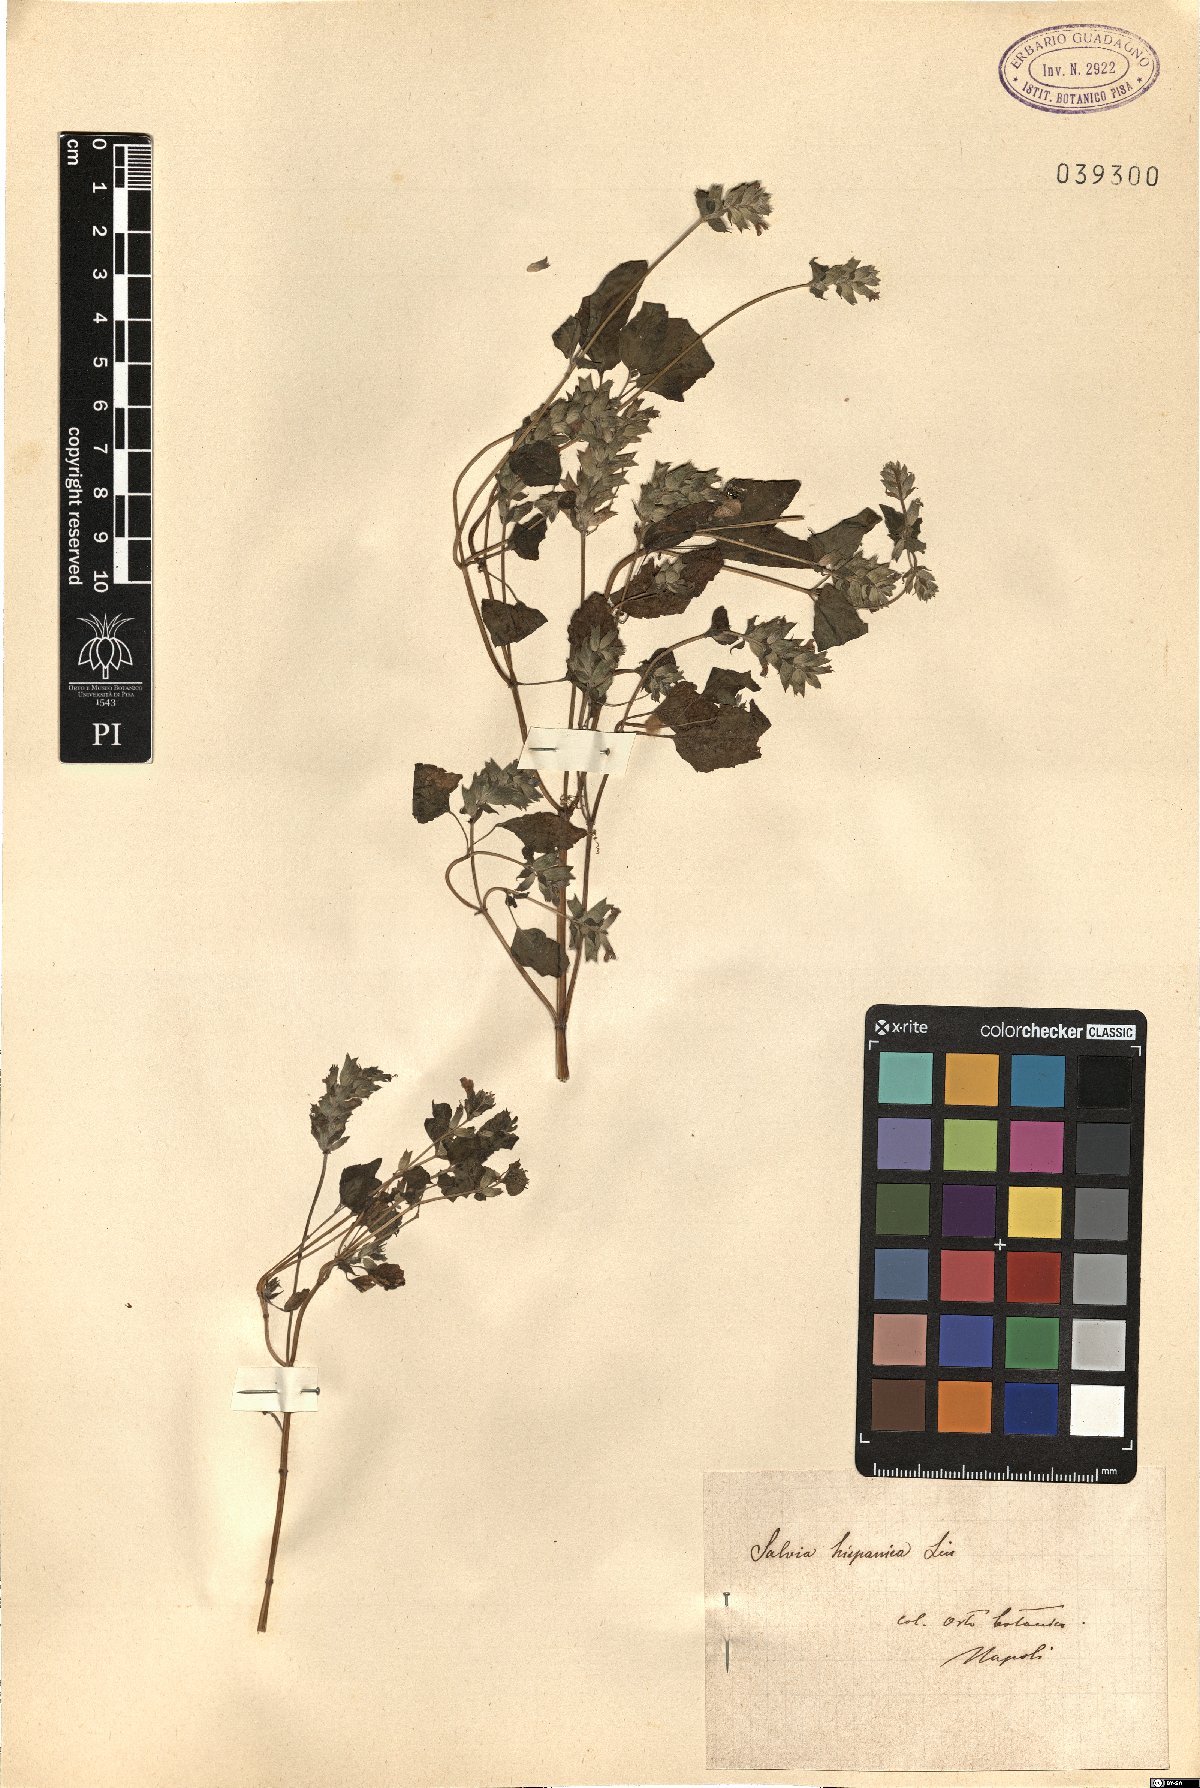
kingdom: Plantae
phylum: Tracheophyta
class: Magnoliopsida
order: Lamiales
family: Lamiaceae
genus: Salvia
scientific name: Salvia hispanica
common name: Chia
